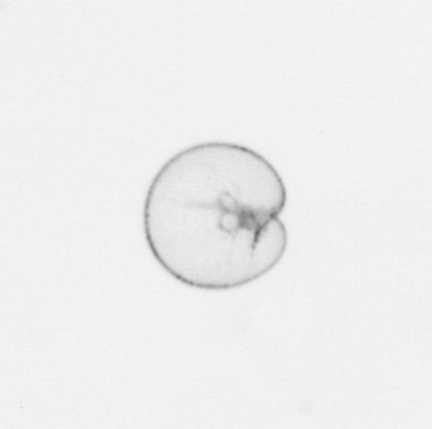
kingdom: Chromista
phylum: Myzozoa
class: Dinophyceae
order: Noctilucales
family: Noctilucaceae
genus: Noctiluca
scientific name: Noctiluca scintillans
